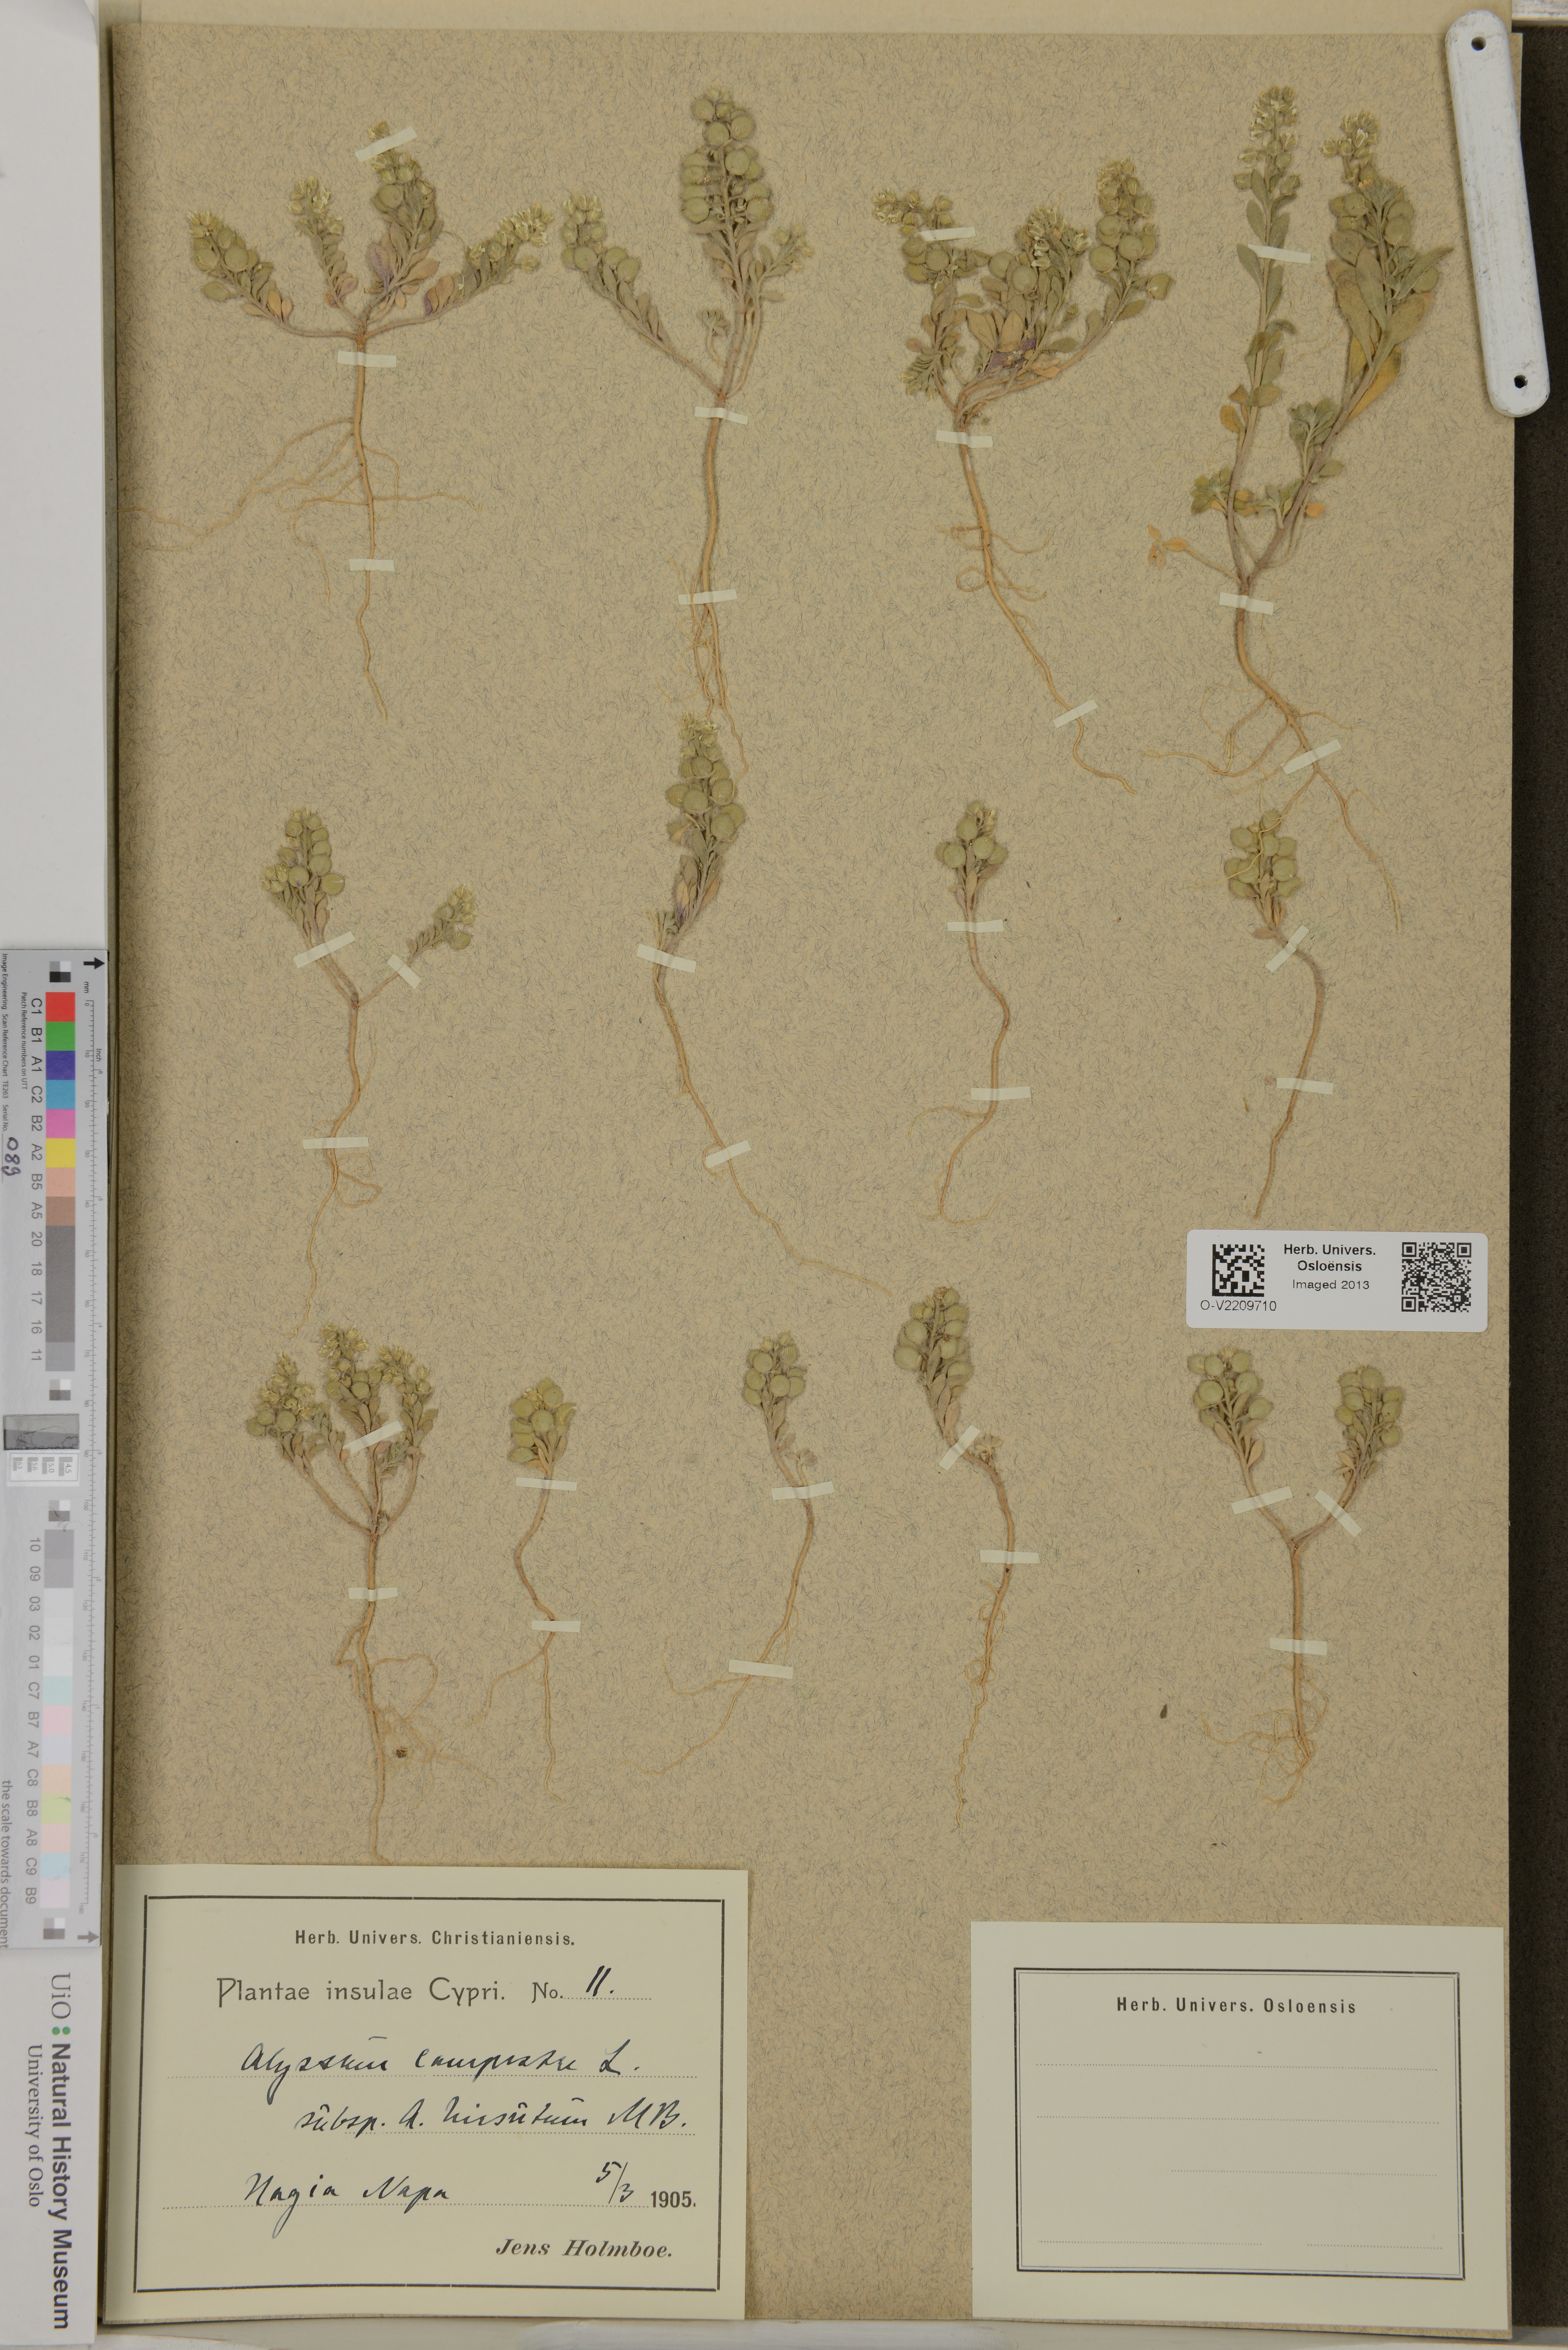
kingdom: Plantae
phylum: Tracheophyta
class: Magnoliopsida
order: Brassicales
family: Brassicaceae
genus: Alyssum
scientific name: Alyssum
